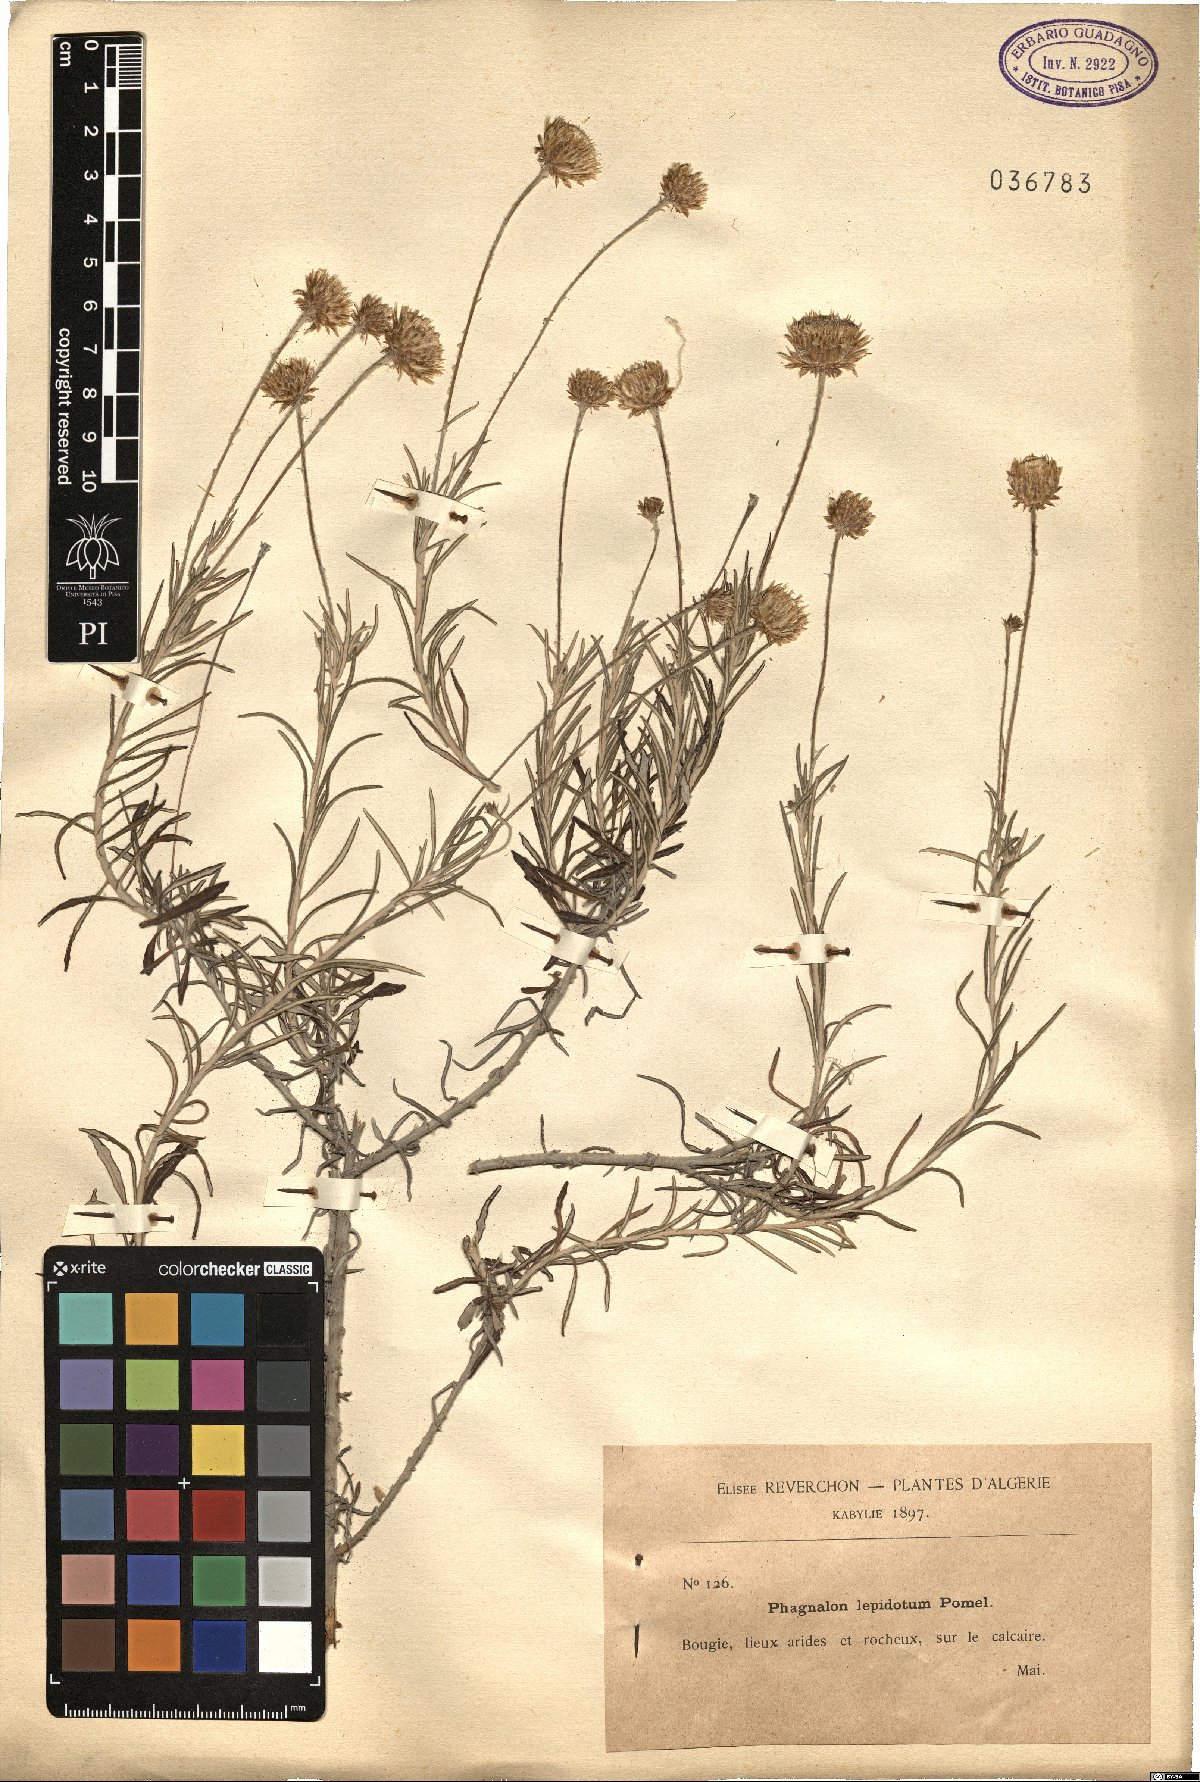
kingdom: Plantae
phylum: Tracheophyta
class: Magnoliopsida
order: Asterales
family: Asteraceae
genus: Phagnalon
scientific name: Phagnalon saxatile
